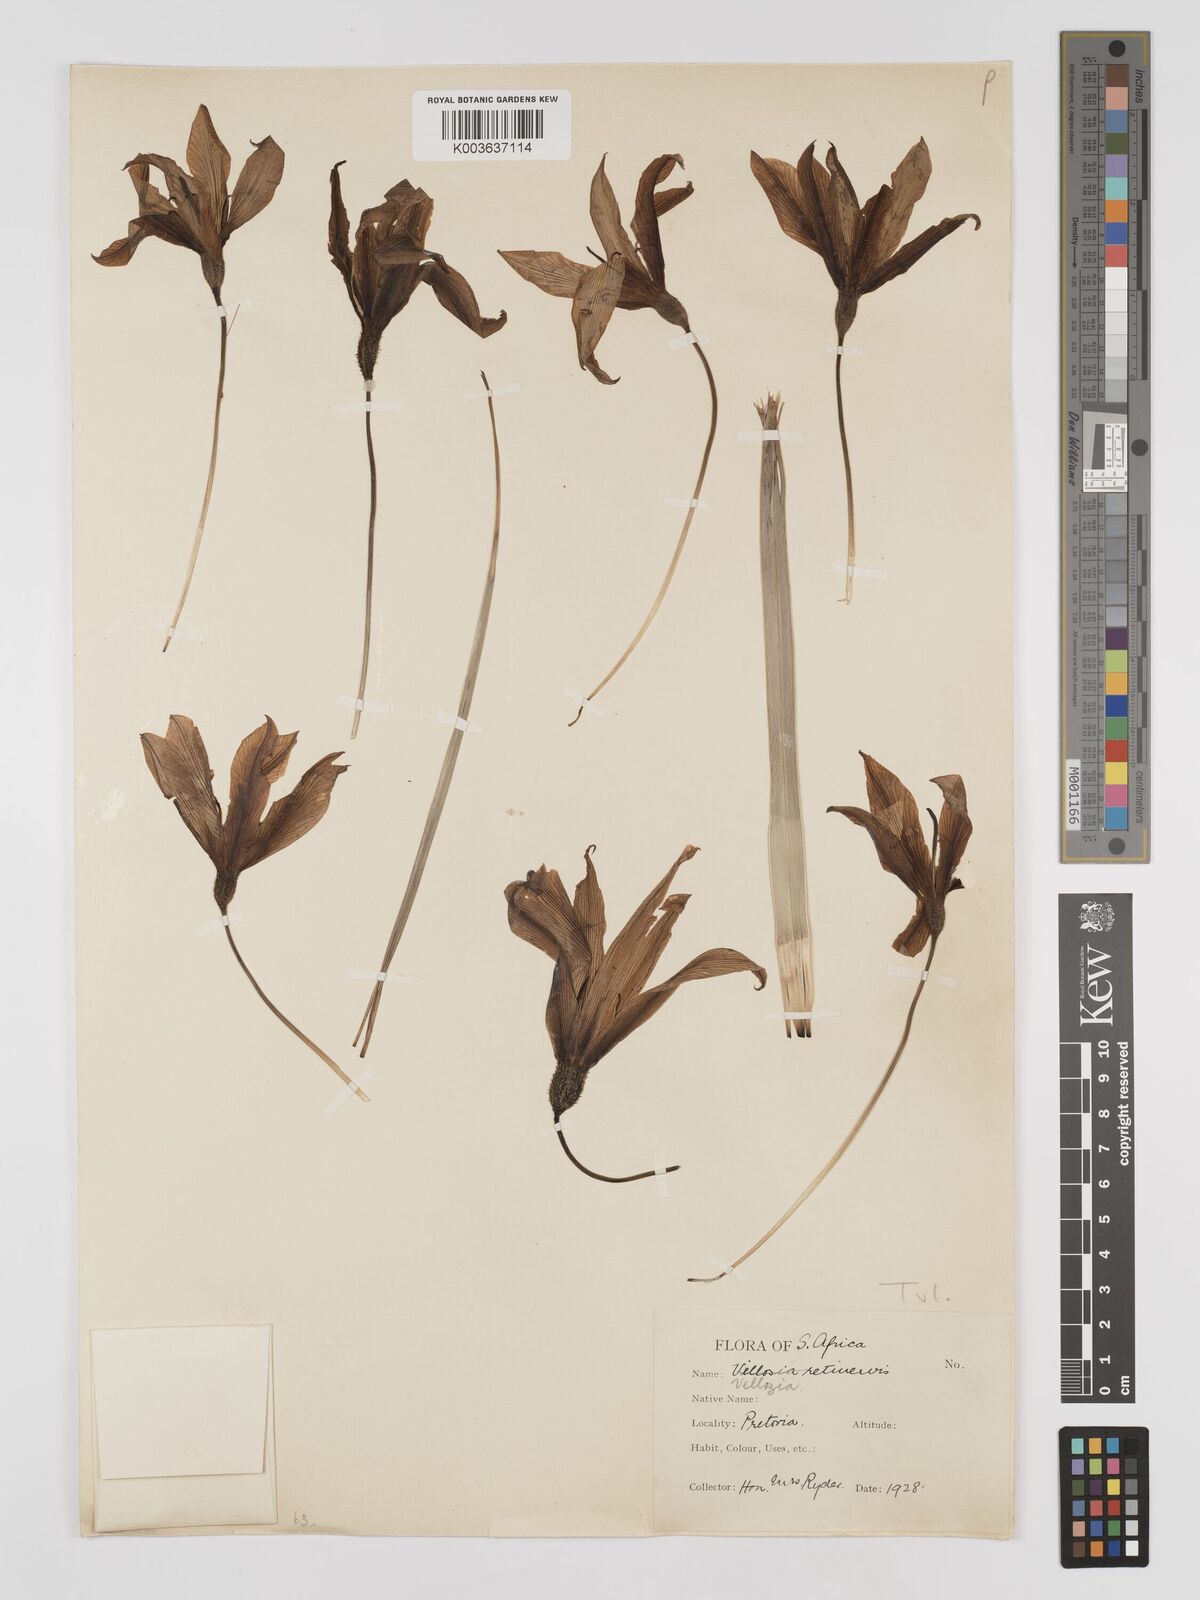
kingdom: Plantae
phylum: Tracheophyta
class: Liliopsida
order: Pandanales
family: Velloziaceae
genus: Xerophyta
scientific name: Xerophyta retinervis
